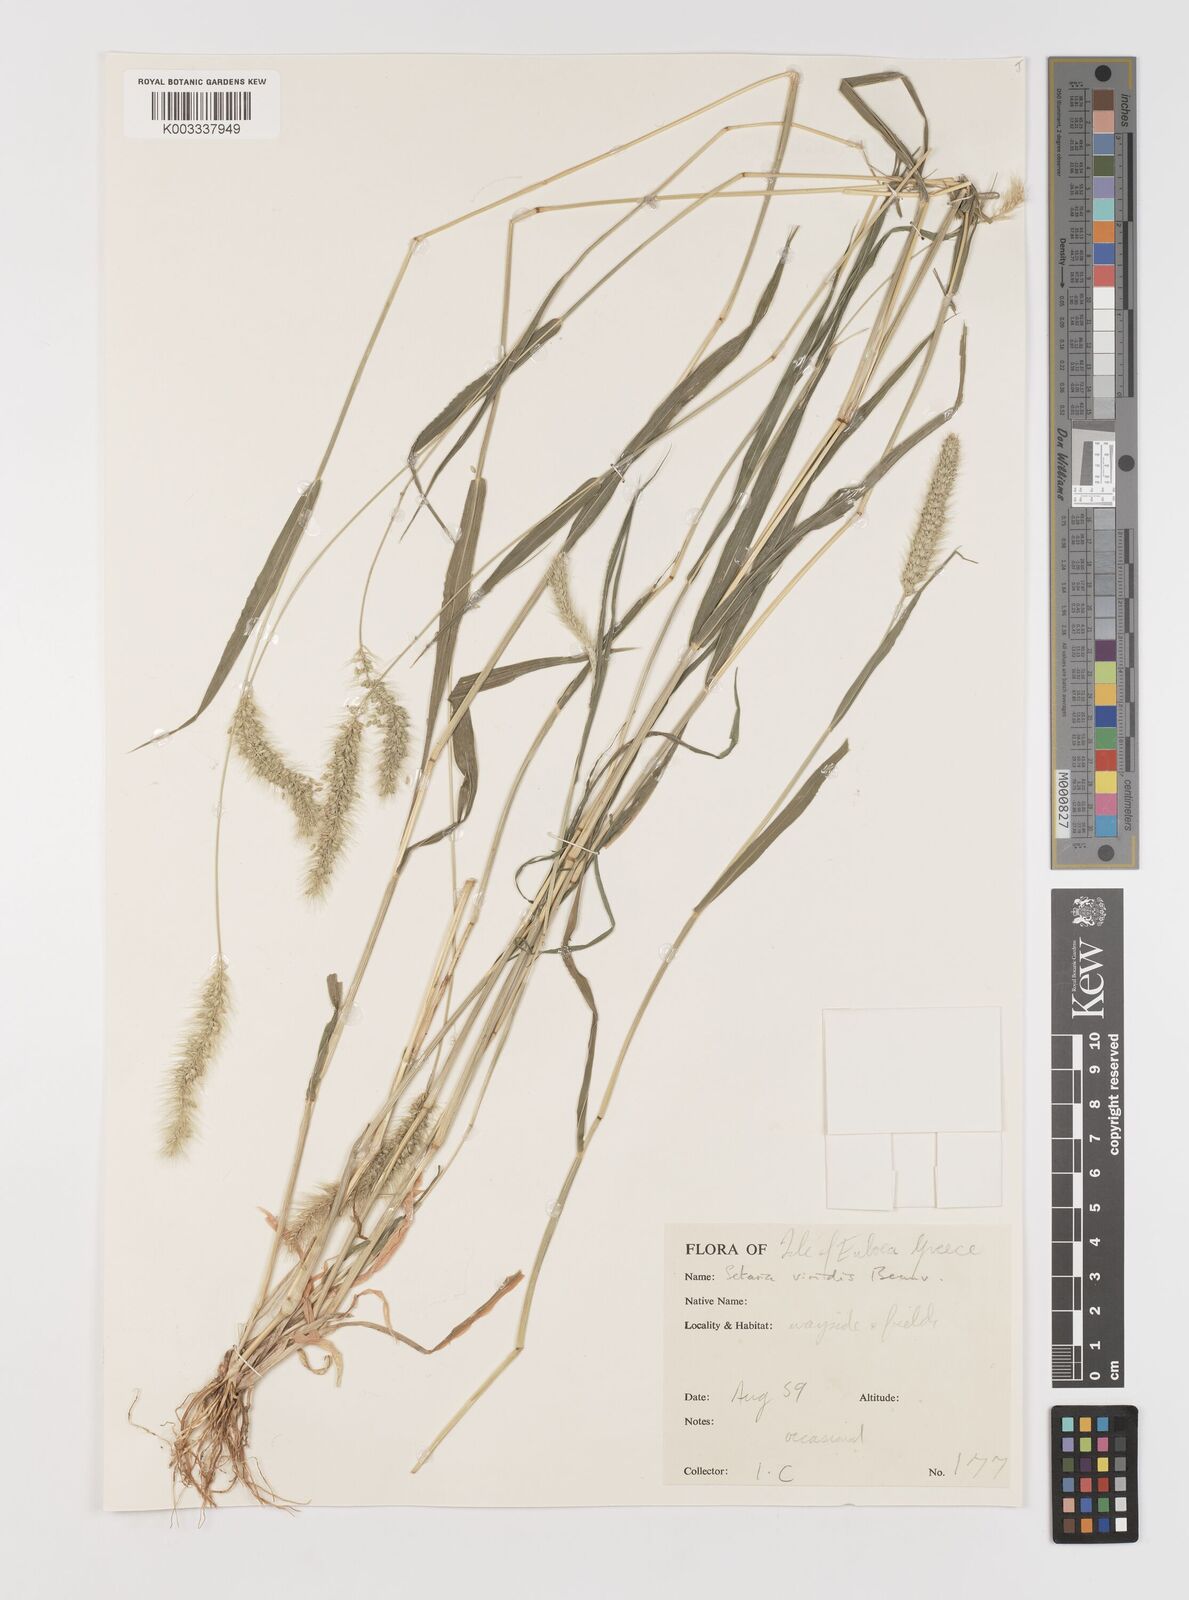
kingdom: Plantae
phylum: Tracheophyta
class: Liliopsida
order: Poales
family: Poaceae
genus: Setaria
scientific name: Setaria viridis
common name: Green bristlegrass
